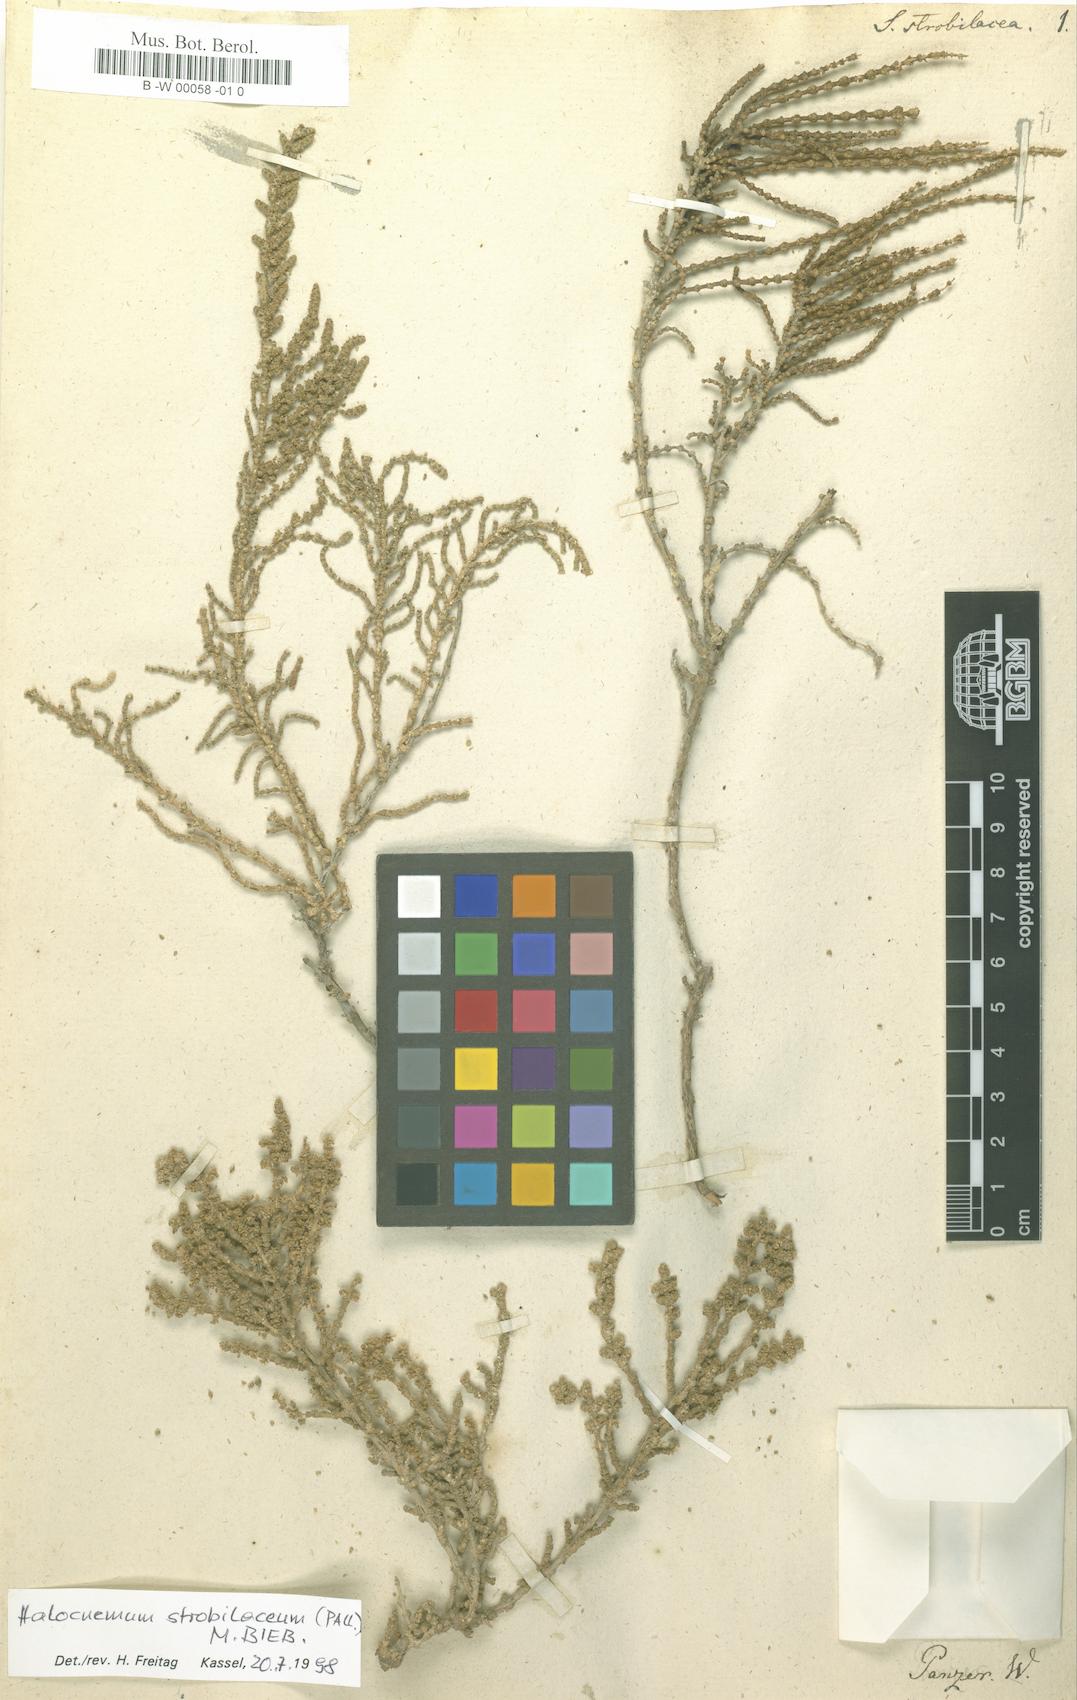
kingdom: Plantae
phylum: Tracheophyta
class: Magnoliopsida
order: Caryophyllales
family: Amaranthaceae
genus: Halocnemum
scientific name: Halocnemum strobilaceum
